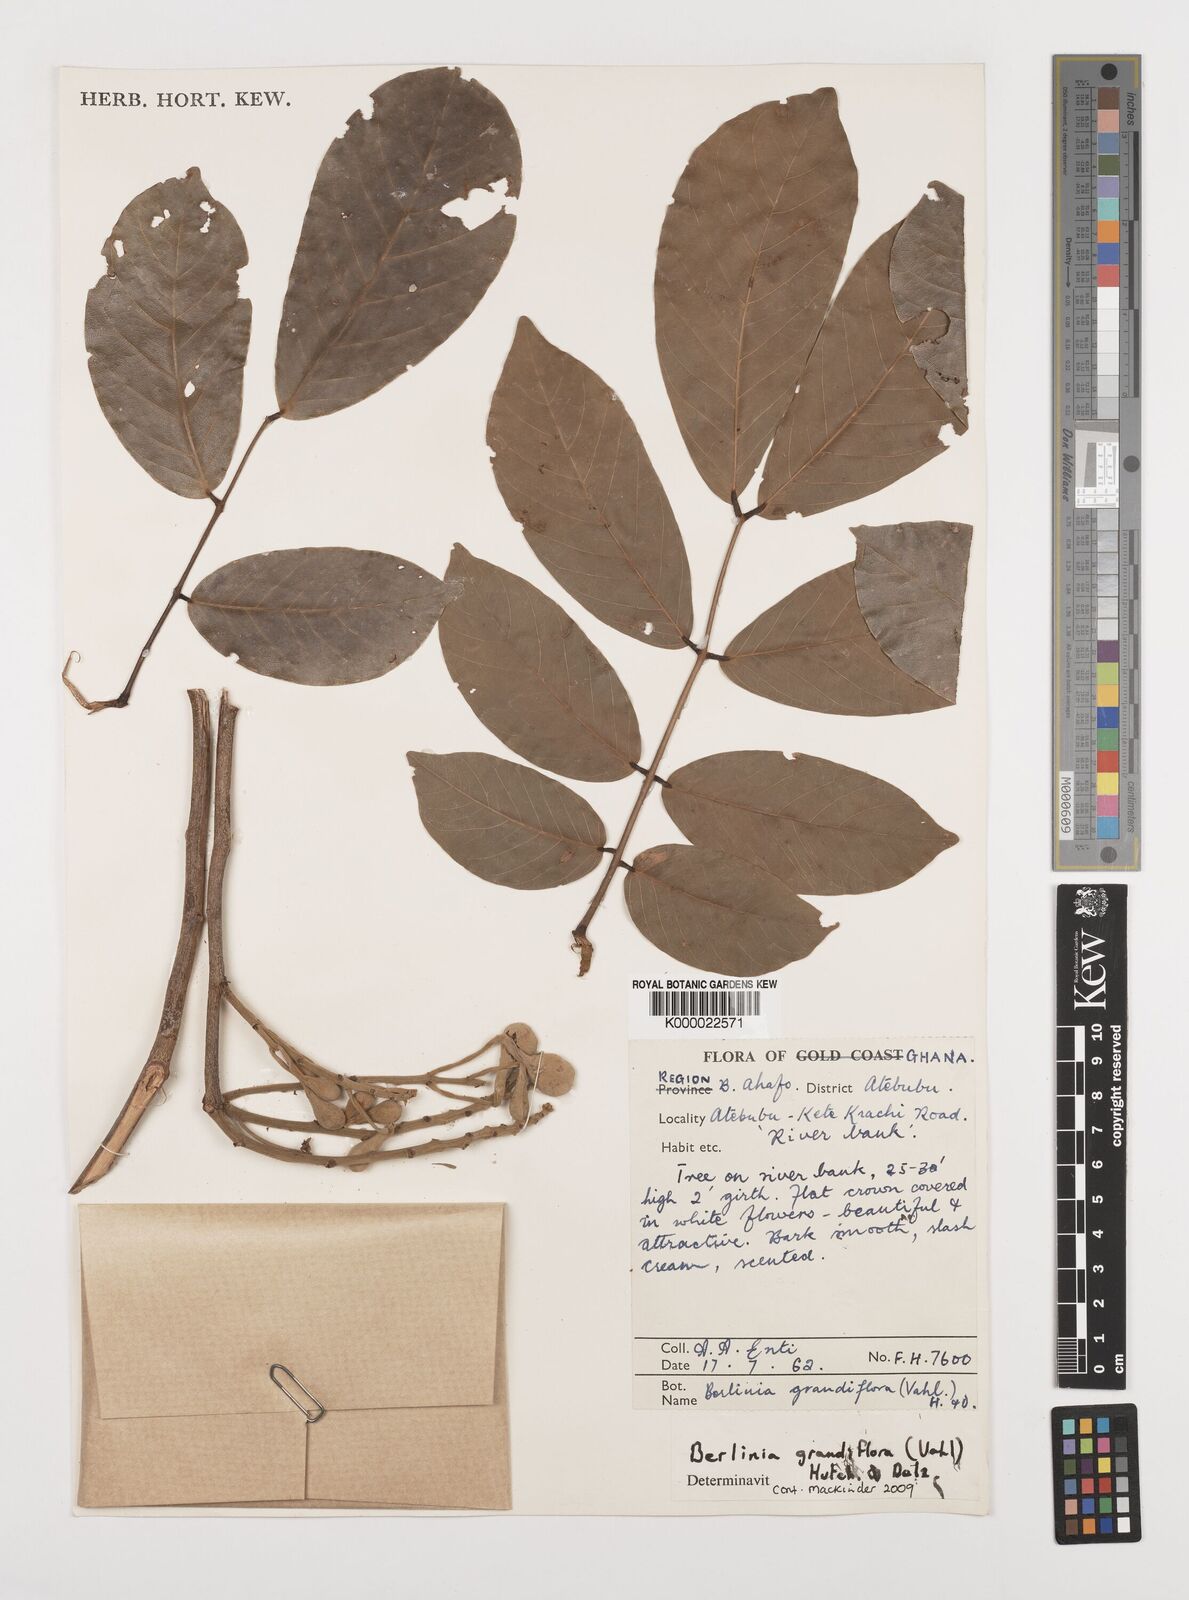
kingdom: Plantae
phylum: Tracheophyta
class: Magnoliopsida
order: Fabales
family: Fabaceae
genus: Berlinia
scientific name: Berlinia grandiflora
